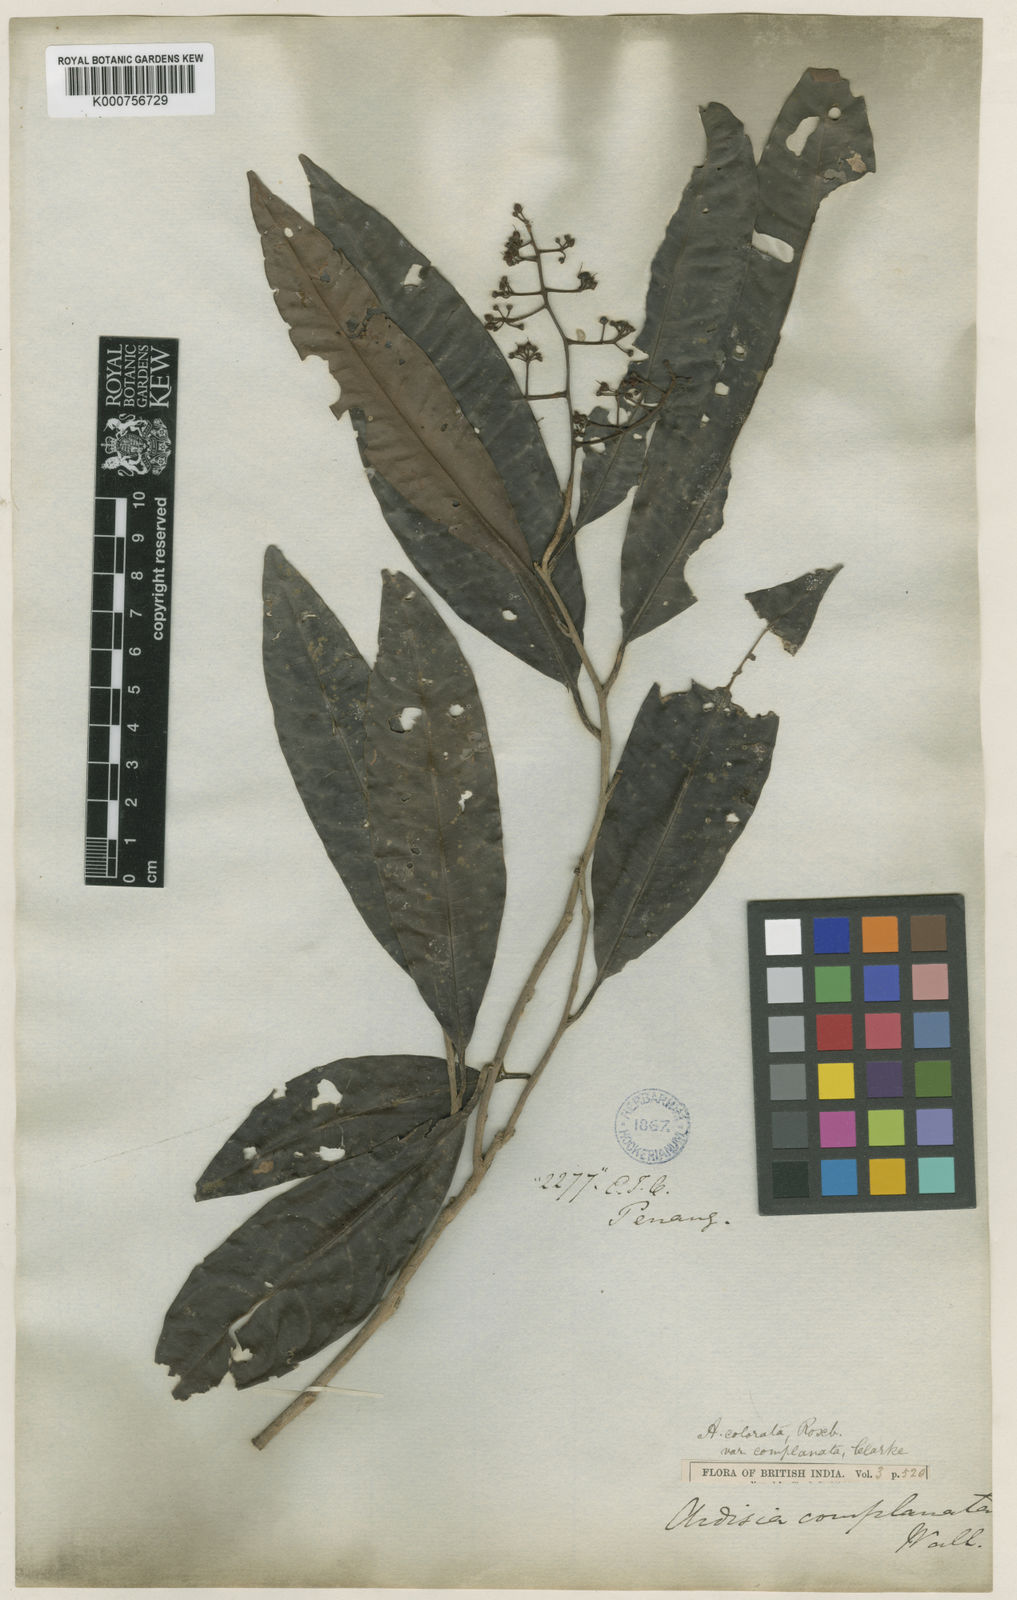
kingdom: Plantae
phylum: Tracheophyta
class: Magnoliopsida
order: Ericales
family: Primulaceae
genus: Ardisia
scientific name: Ardisia complanata
